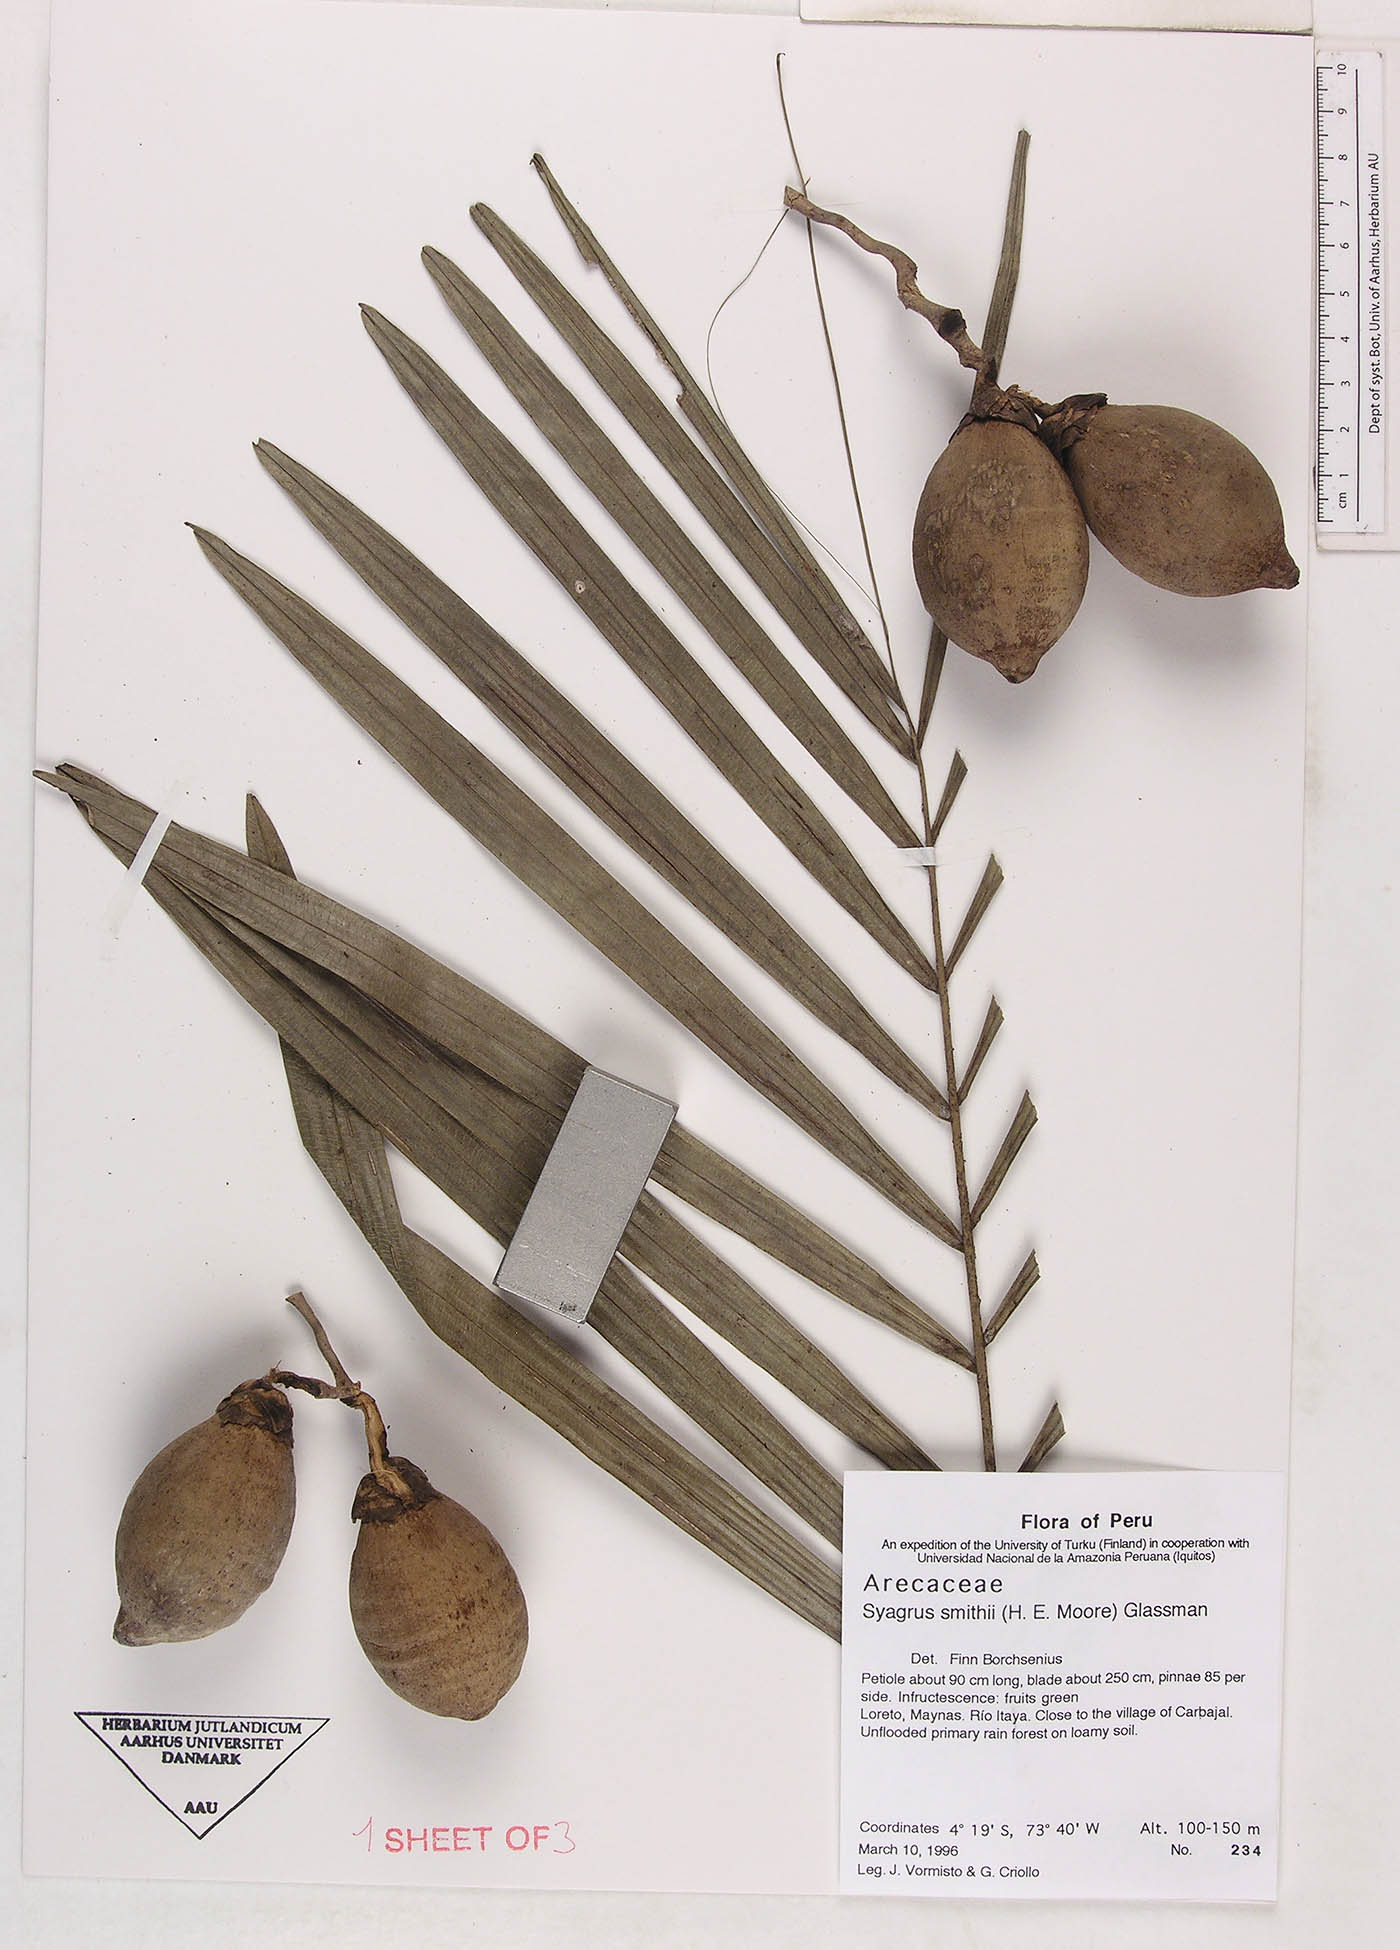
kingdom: Plantae
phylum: Tracheophyta
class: Liliopsida
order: Arecales
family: Arecaceae
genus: Syagrus
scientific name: Syagrus smithii
